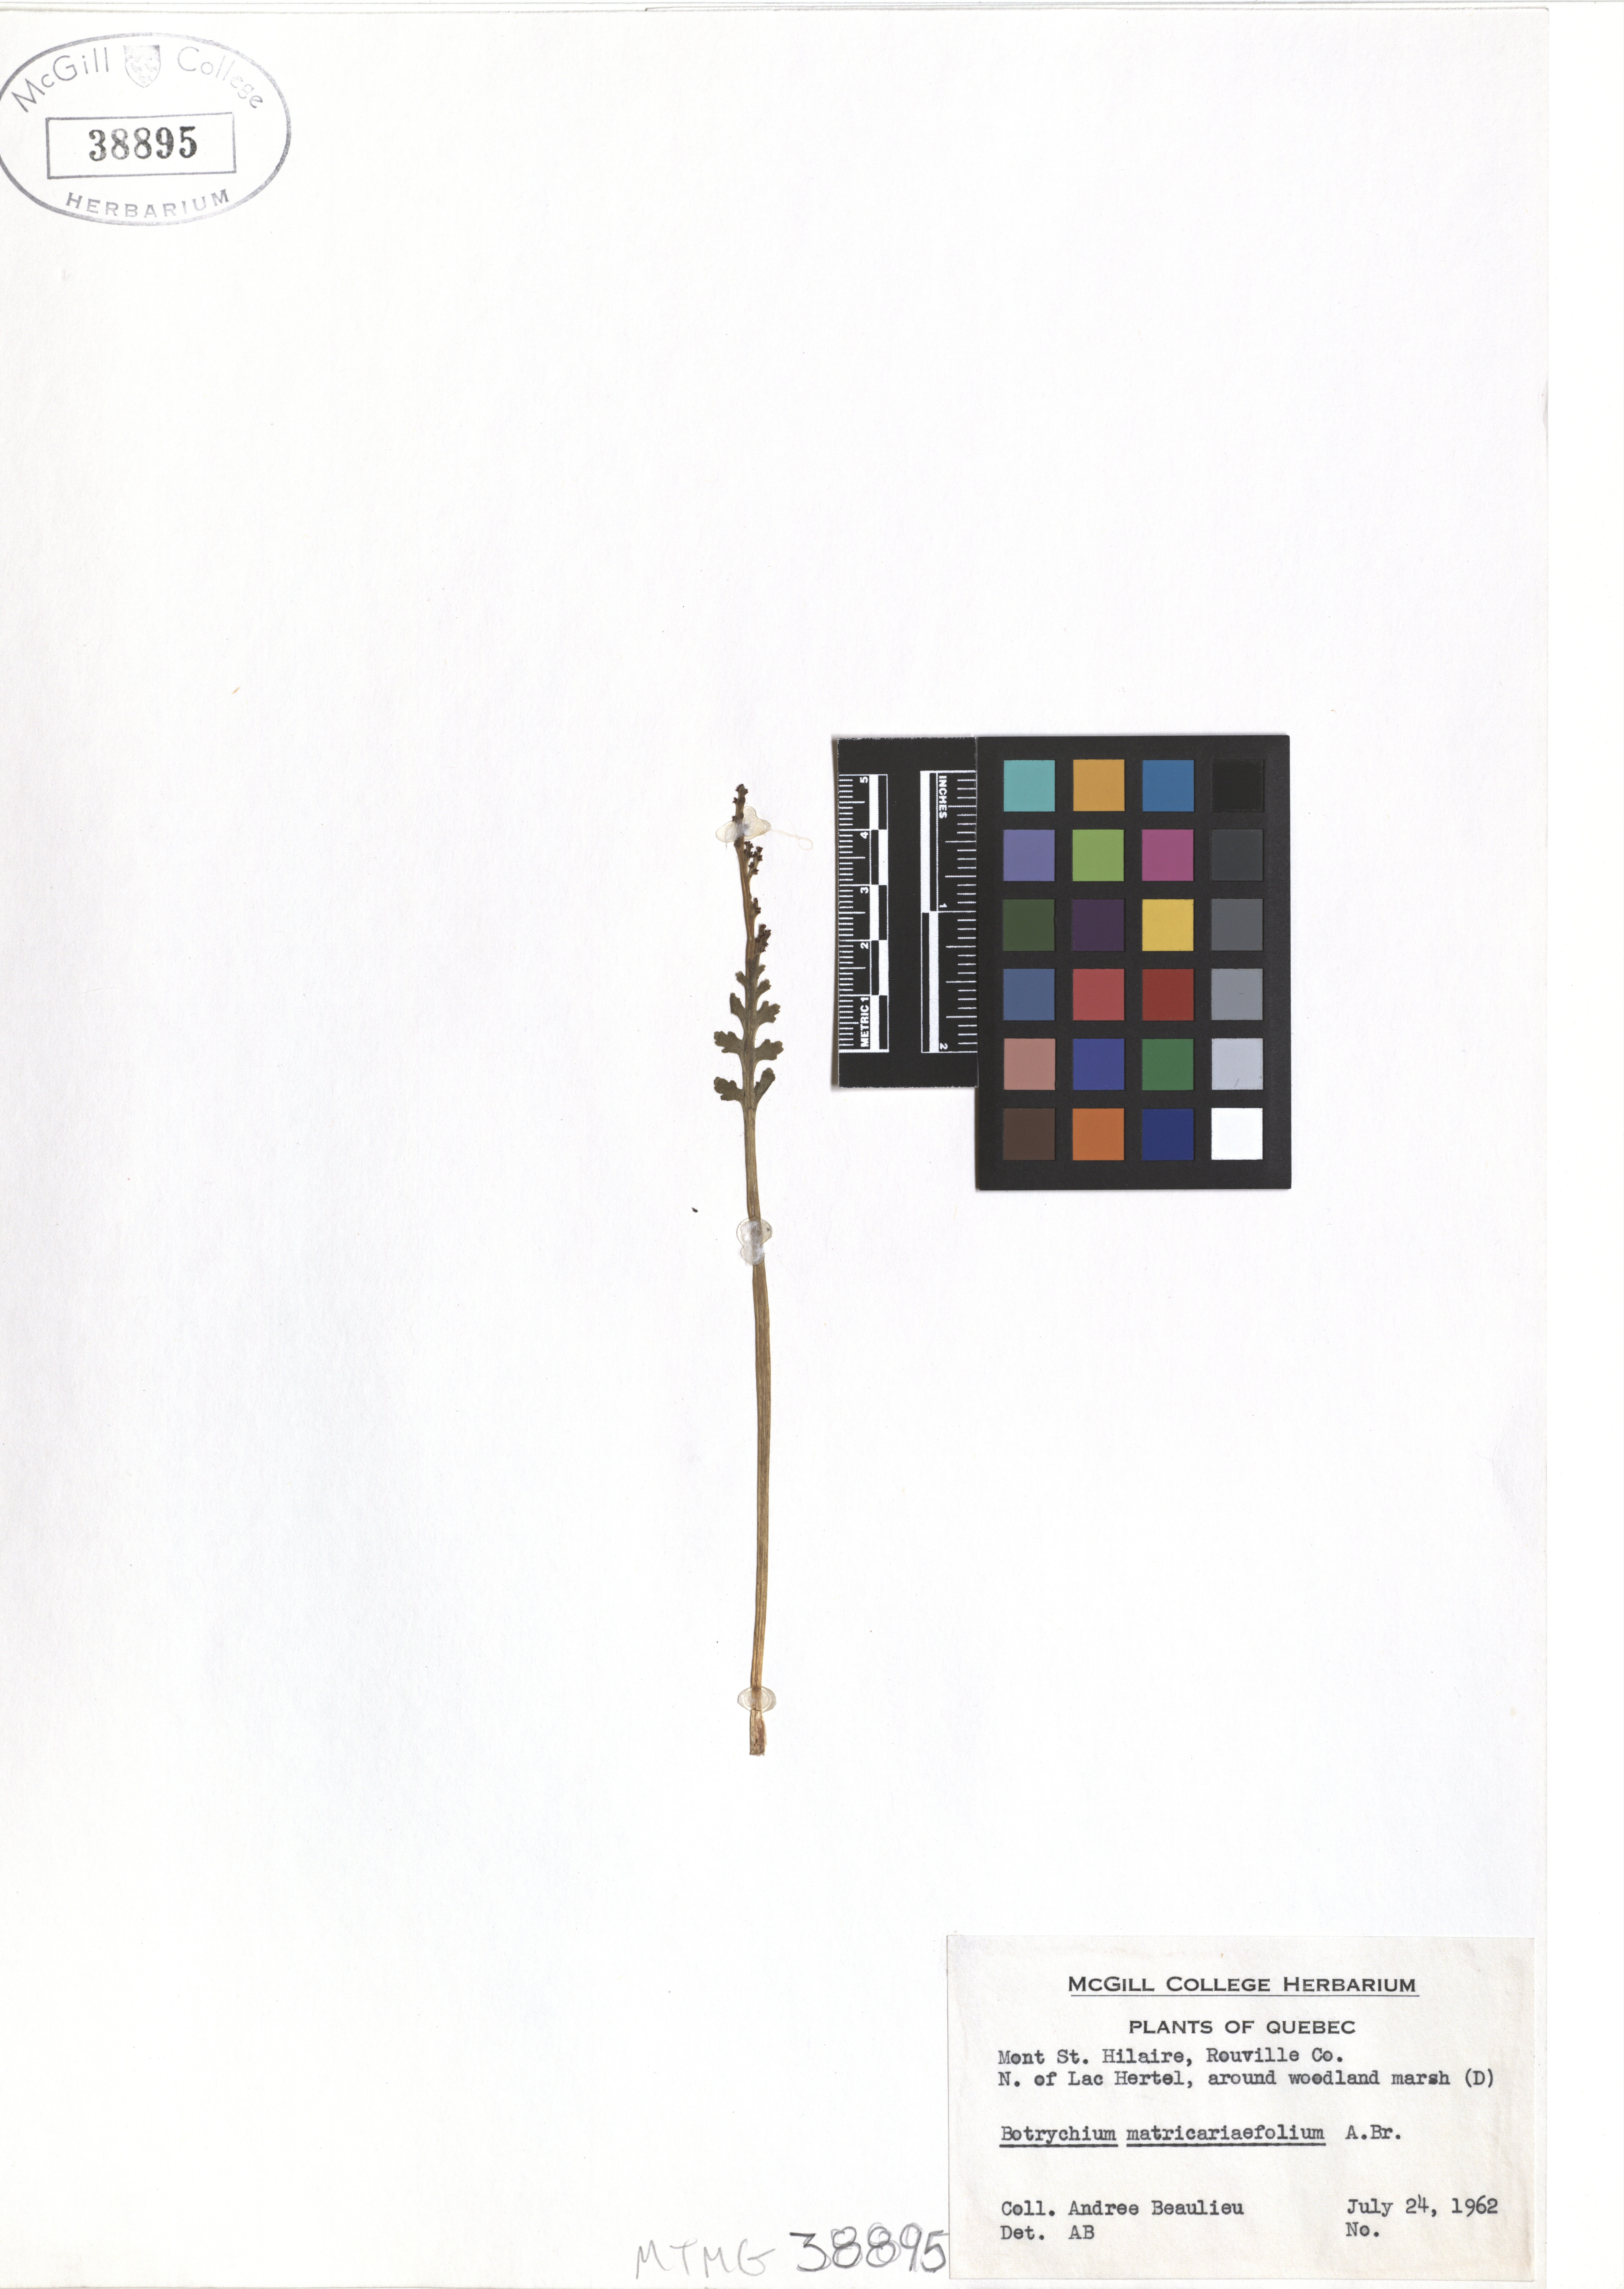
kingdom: Plantae
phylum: Tracheophyta
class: Polypodiopsida
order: Ophioglossales
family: Ophioglossaceae
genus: Botrychium
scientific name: Botrychium matricariifolium
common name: Branched moonwort
